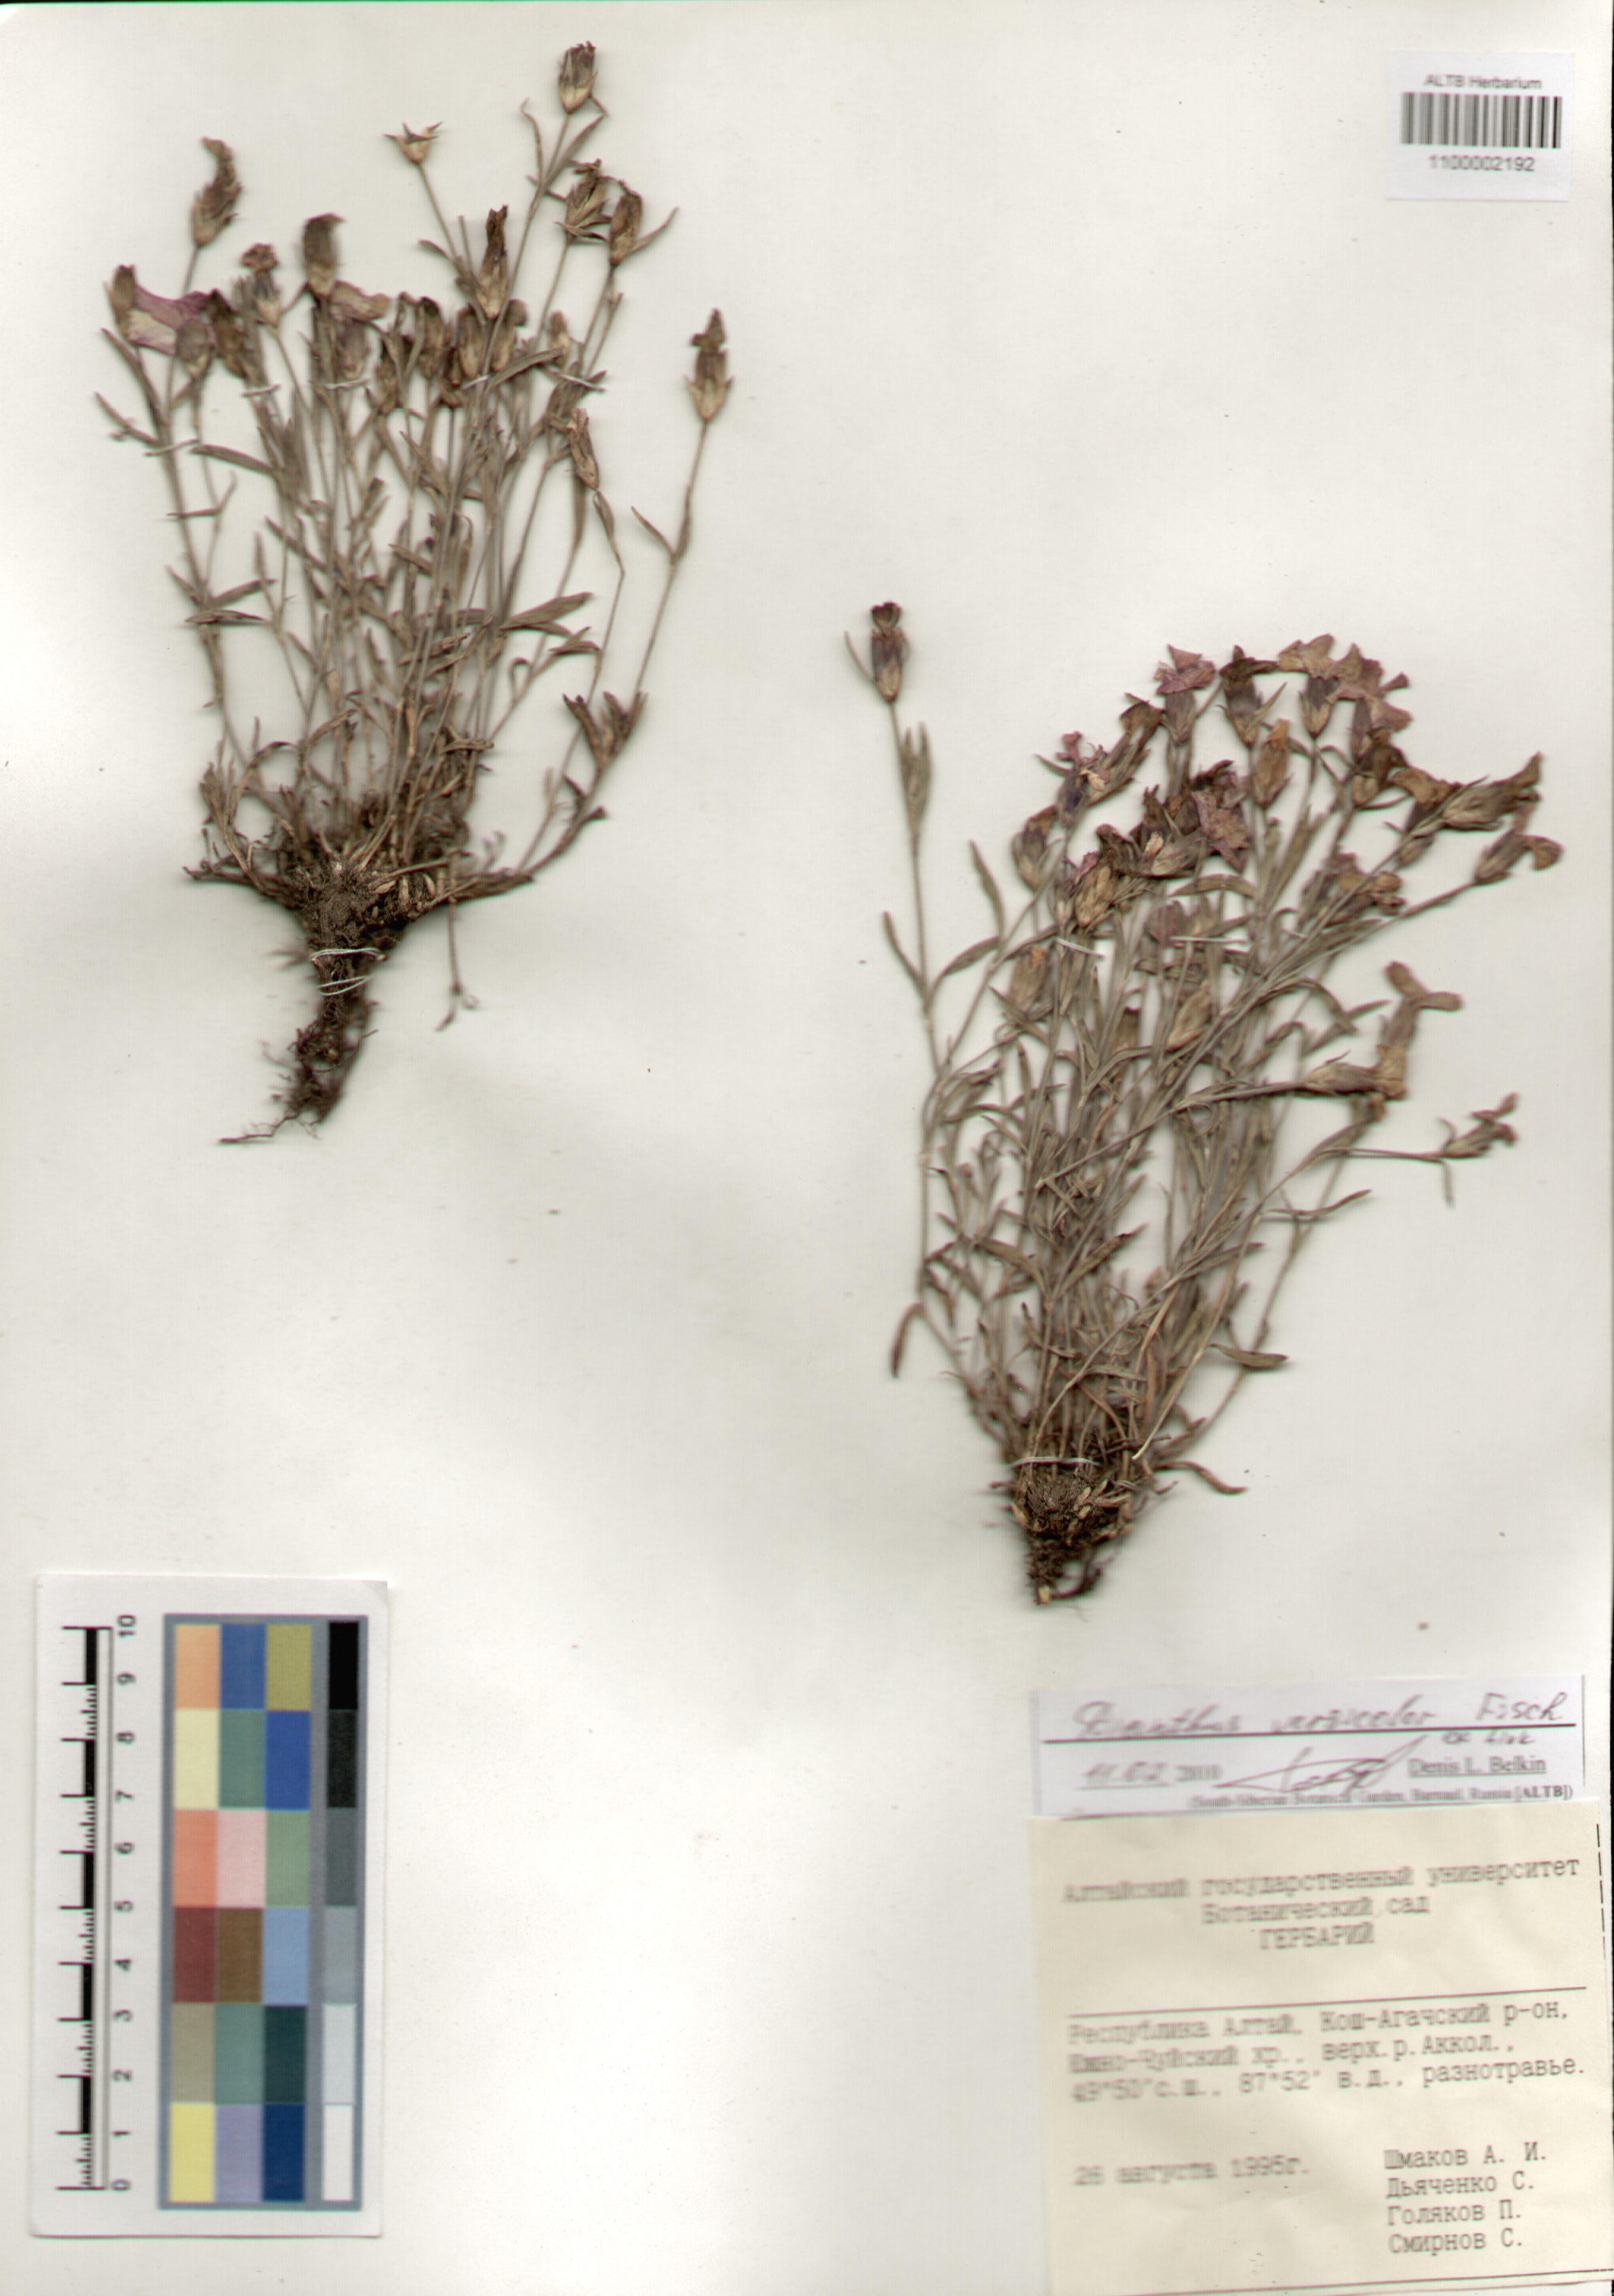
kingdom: Plantae
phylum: Tracheophyta
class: Magnoliopsida
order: Caryophyllales
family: Caryophyllaceae
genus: Dianthus
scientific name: Dianthus chinensis
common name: Rainbow pink
